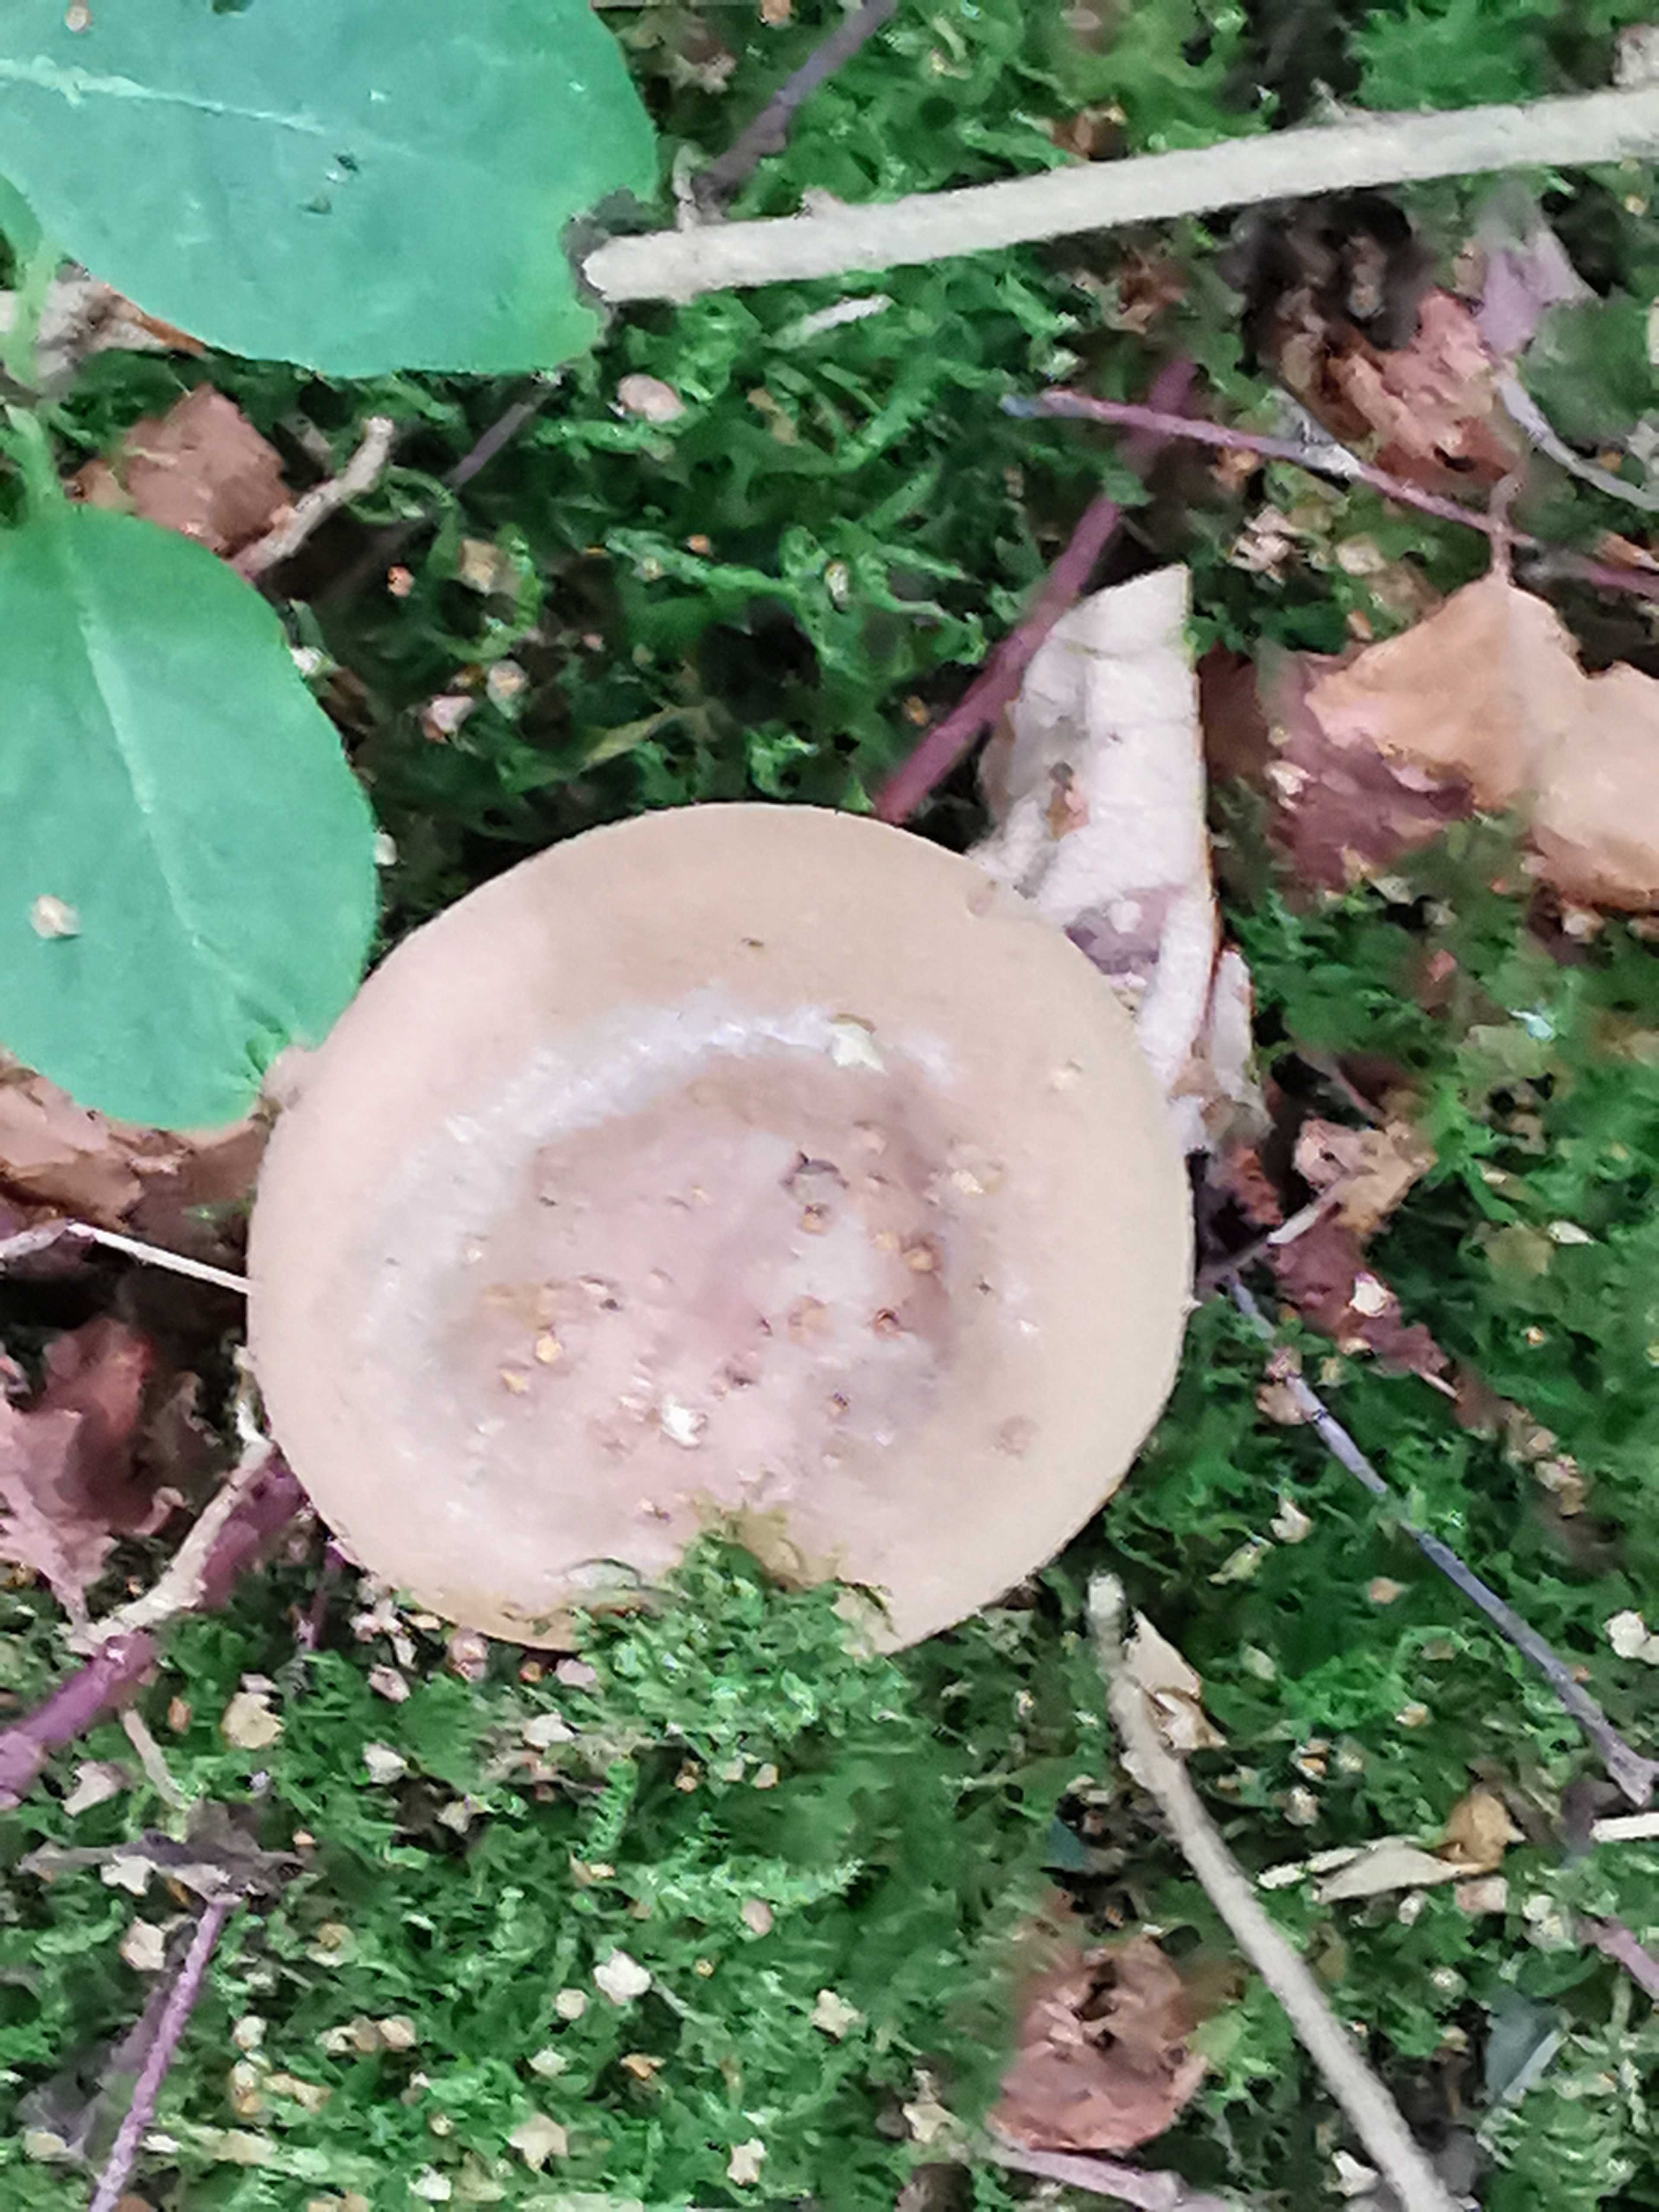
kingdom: Fungi
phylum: Basidiomycota
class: Agaricomycetes
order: Boletales
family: Paxillaceae
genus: Paxillus
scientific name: Paxillus involutus
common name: almindelig netbladhat
